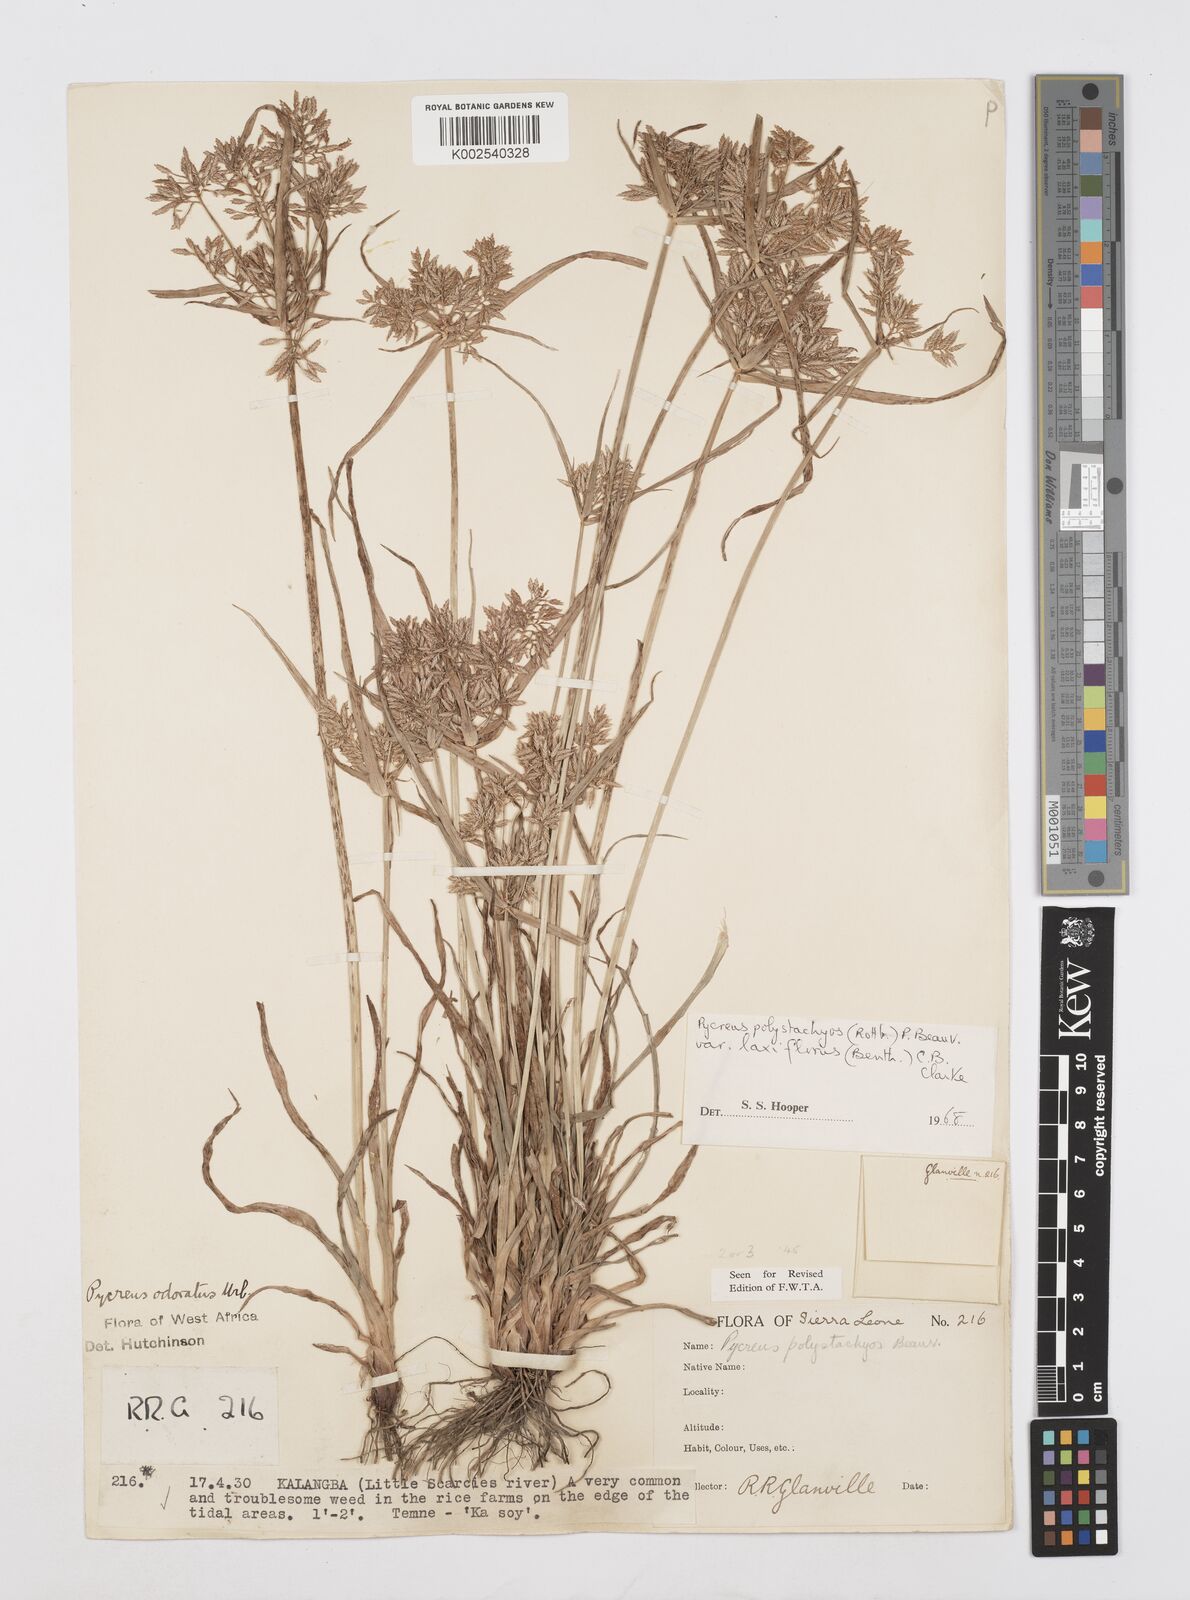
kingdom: Plantae
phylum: Tracheophyta
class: Liliopsida
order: Poales
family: Cyperaceae
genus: Cyperus
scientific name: Cyperus polystachyos
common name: Bunchy flat sedge
